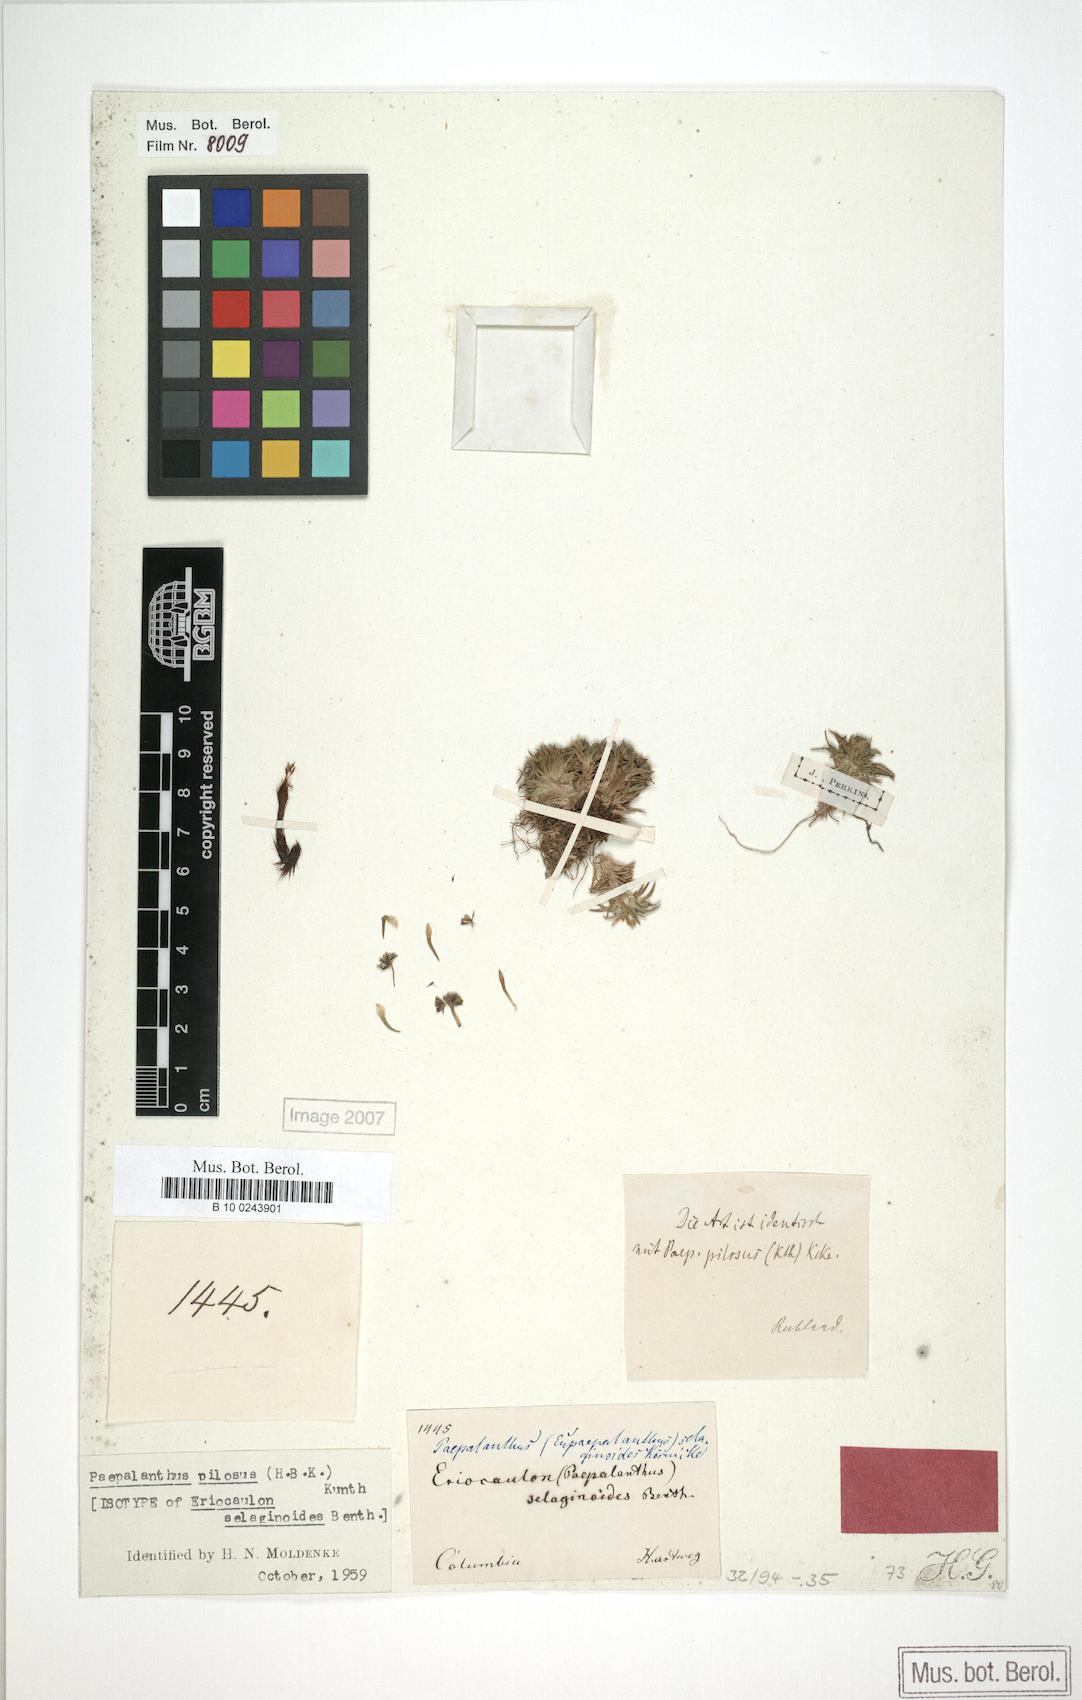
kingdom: Plantae
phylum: Tracheophyta
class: Liliopsida
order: Poales
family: Eriocaulaceae
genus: Paepalanthus
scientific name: Paepalanthus pilosus
